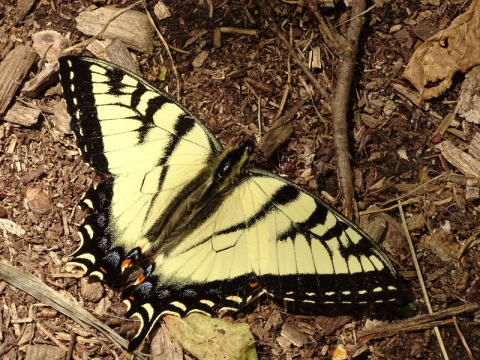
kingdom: Animalia
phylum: Arthropoda
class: Insecta
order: Lepidoptera
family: Papilionidae
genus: Pterourus
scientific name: Pterourus canadensis
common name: Canadian Tiger Swallowtail
